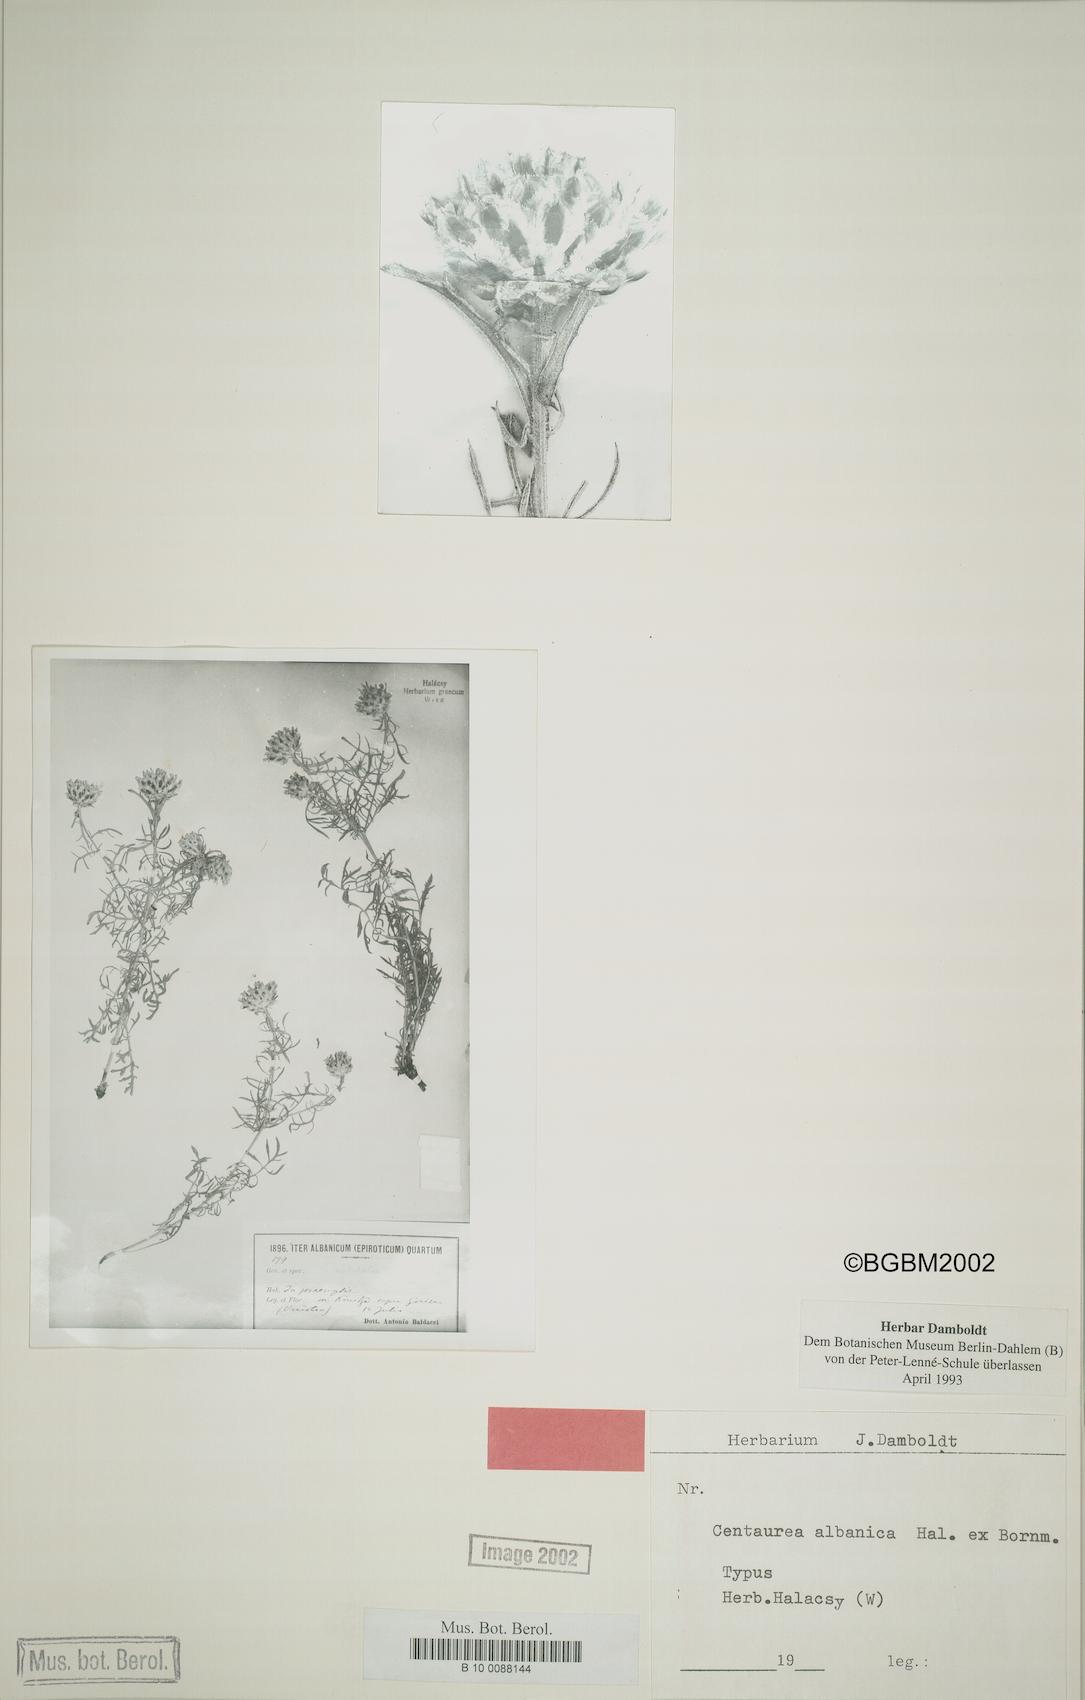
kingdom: Plantae
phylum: Tracheophyta
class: Magnoliopsida
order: Asterales
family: Asteraceae
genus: Centaurea
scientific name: Centaurea albanica
